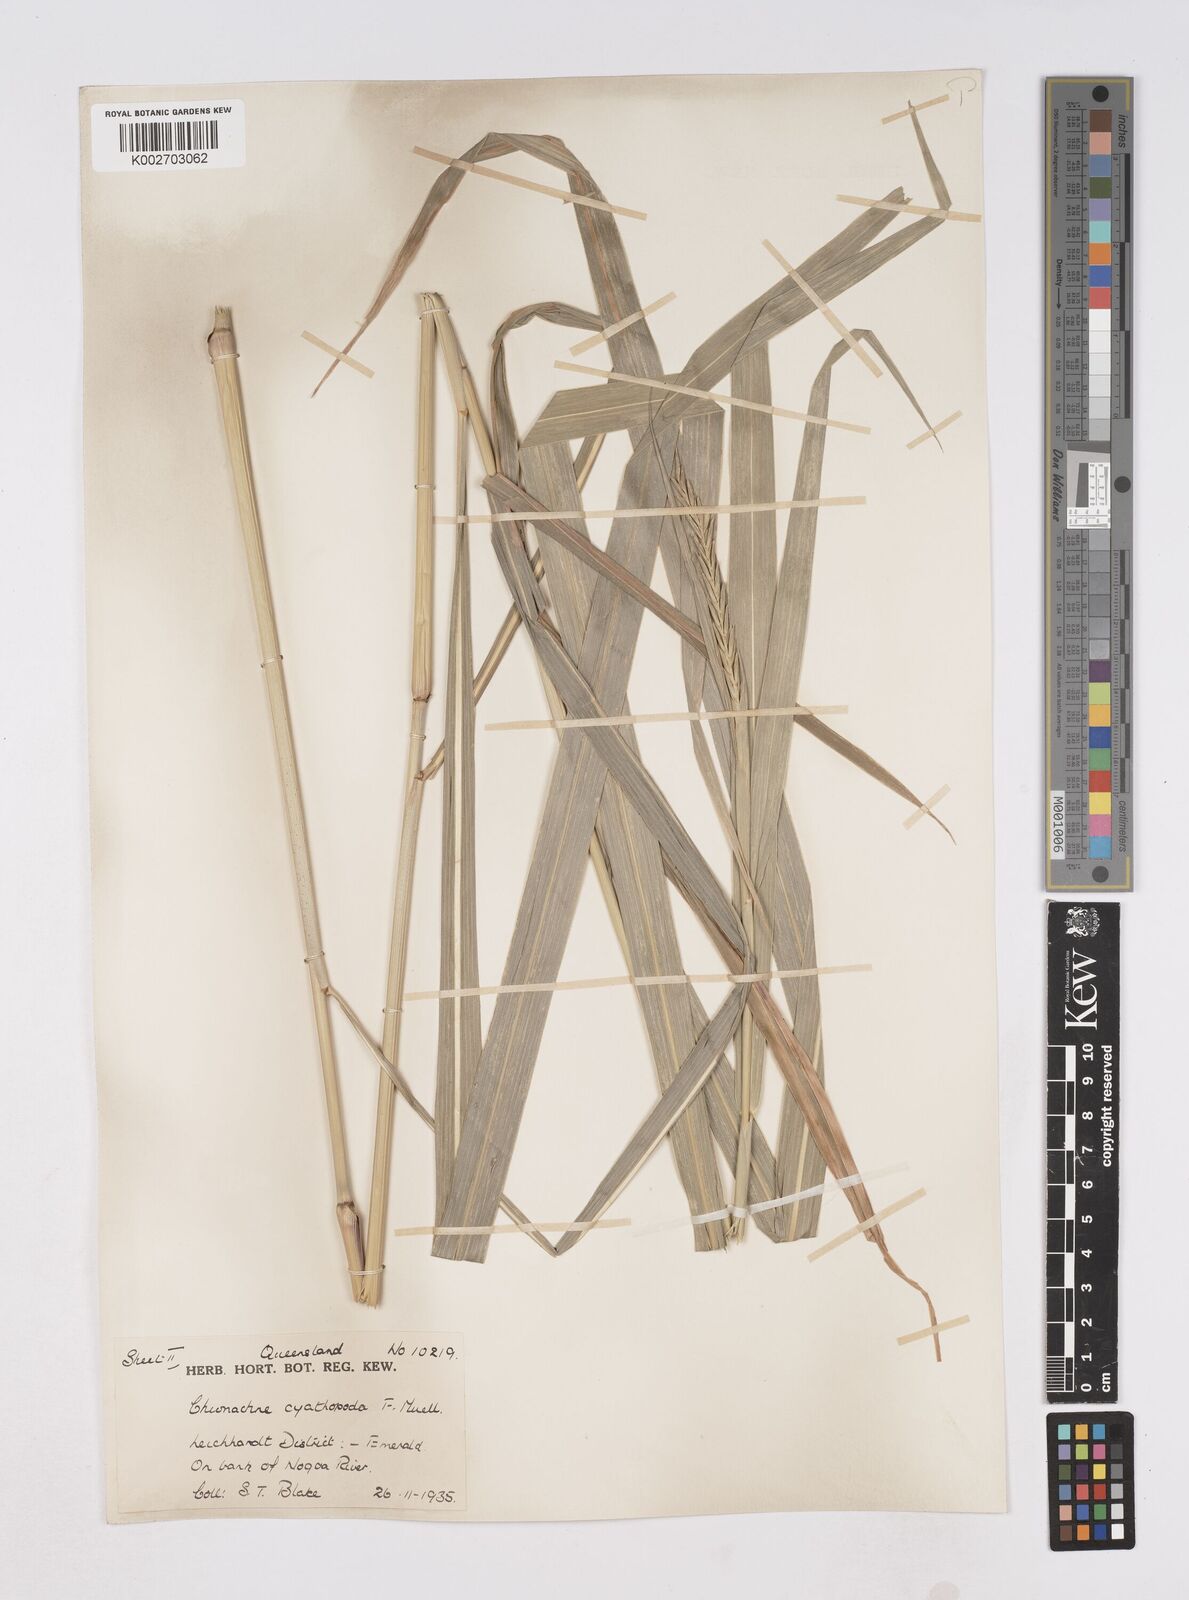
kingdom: Plantae
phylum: Tracheophyta
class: Liliopsida
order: Poales
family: Poaceae
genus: Polytoca
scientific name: Polytoca cyathopoda
